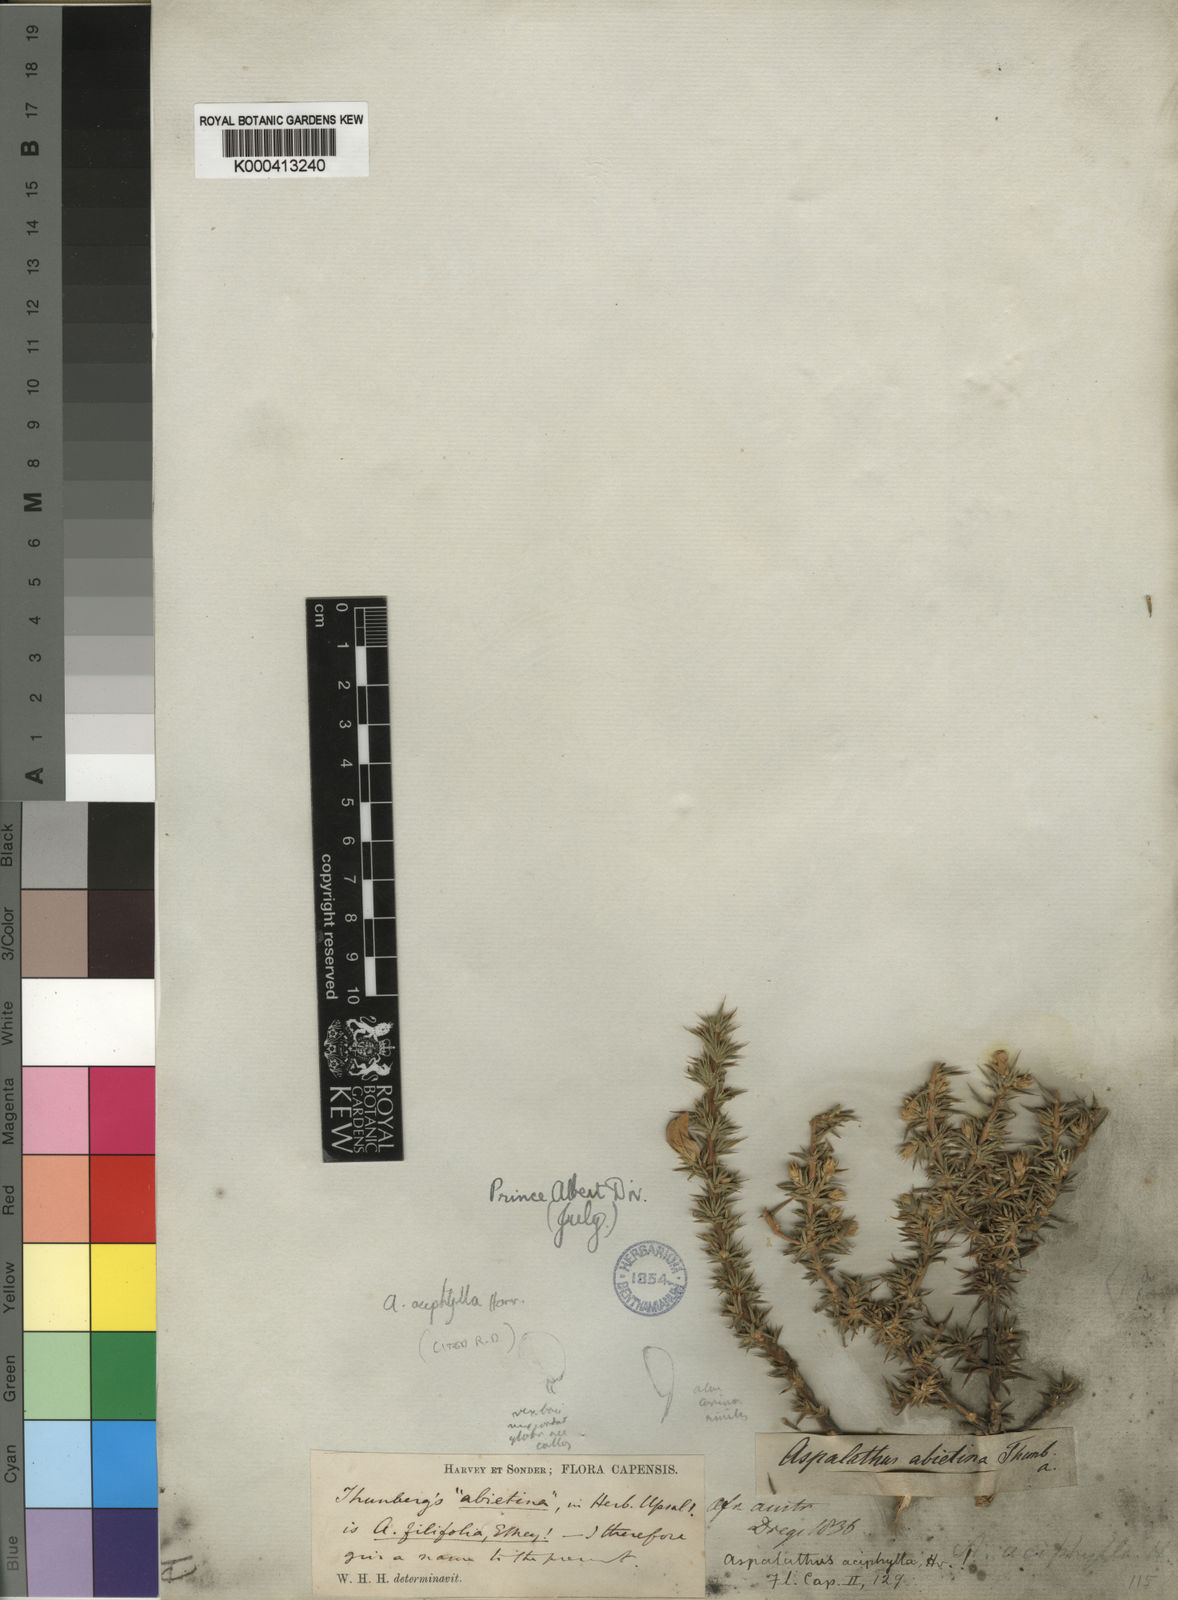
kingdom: Plantae
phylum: Tracheophyta
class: Magnoliopsida
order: Fabales
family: Fabaceae
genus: Aspalathus
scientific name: Aspalathus aciphylla
